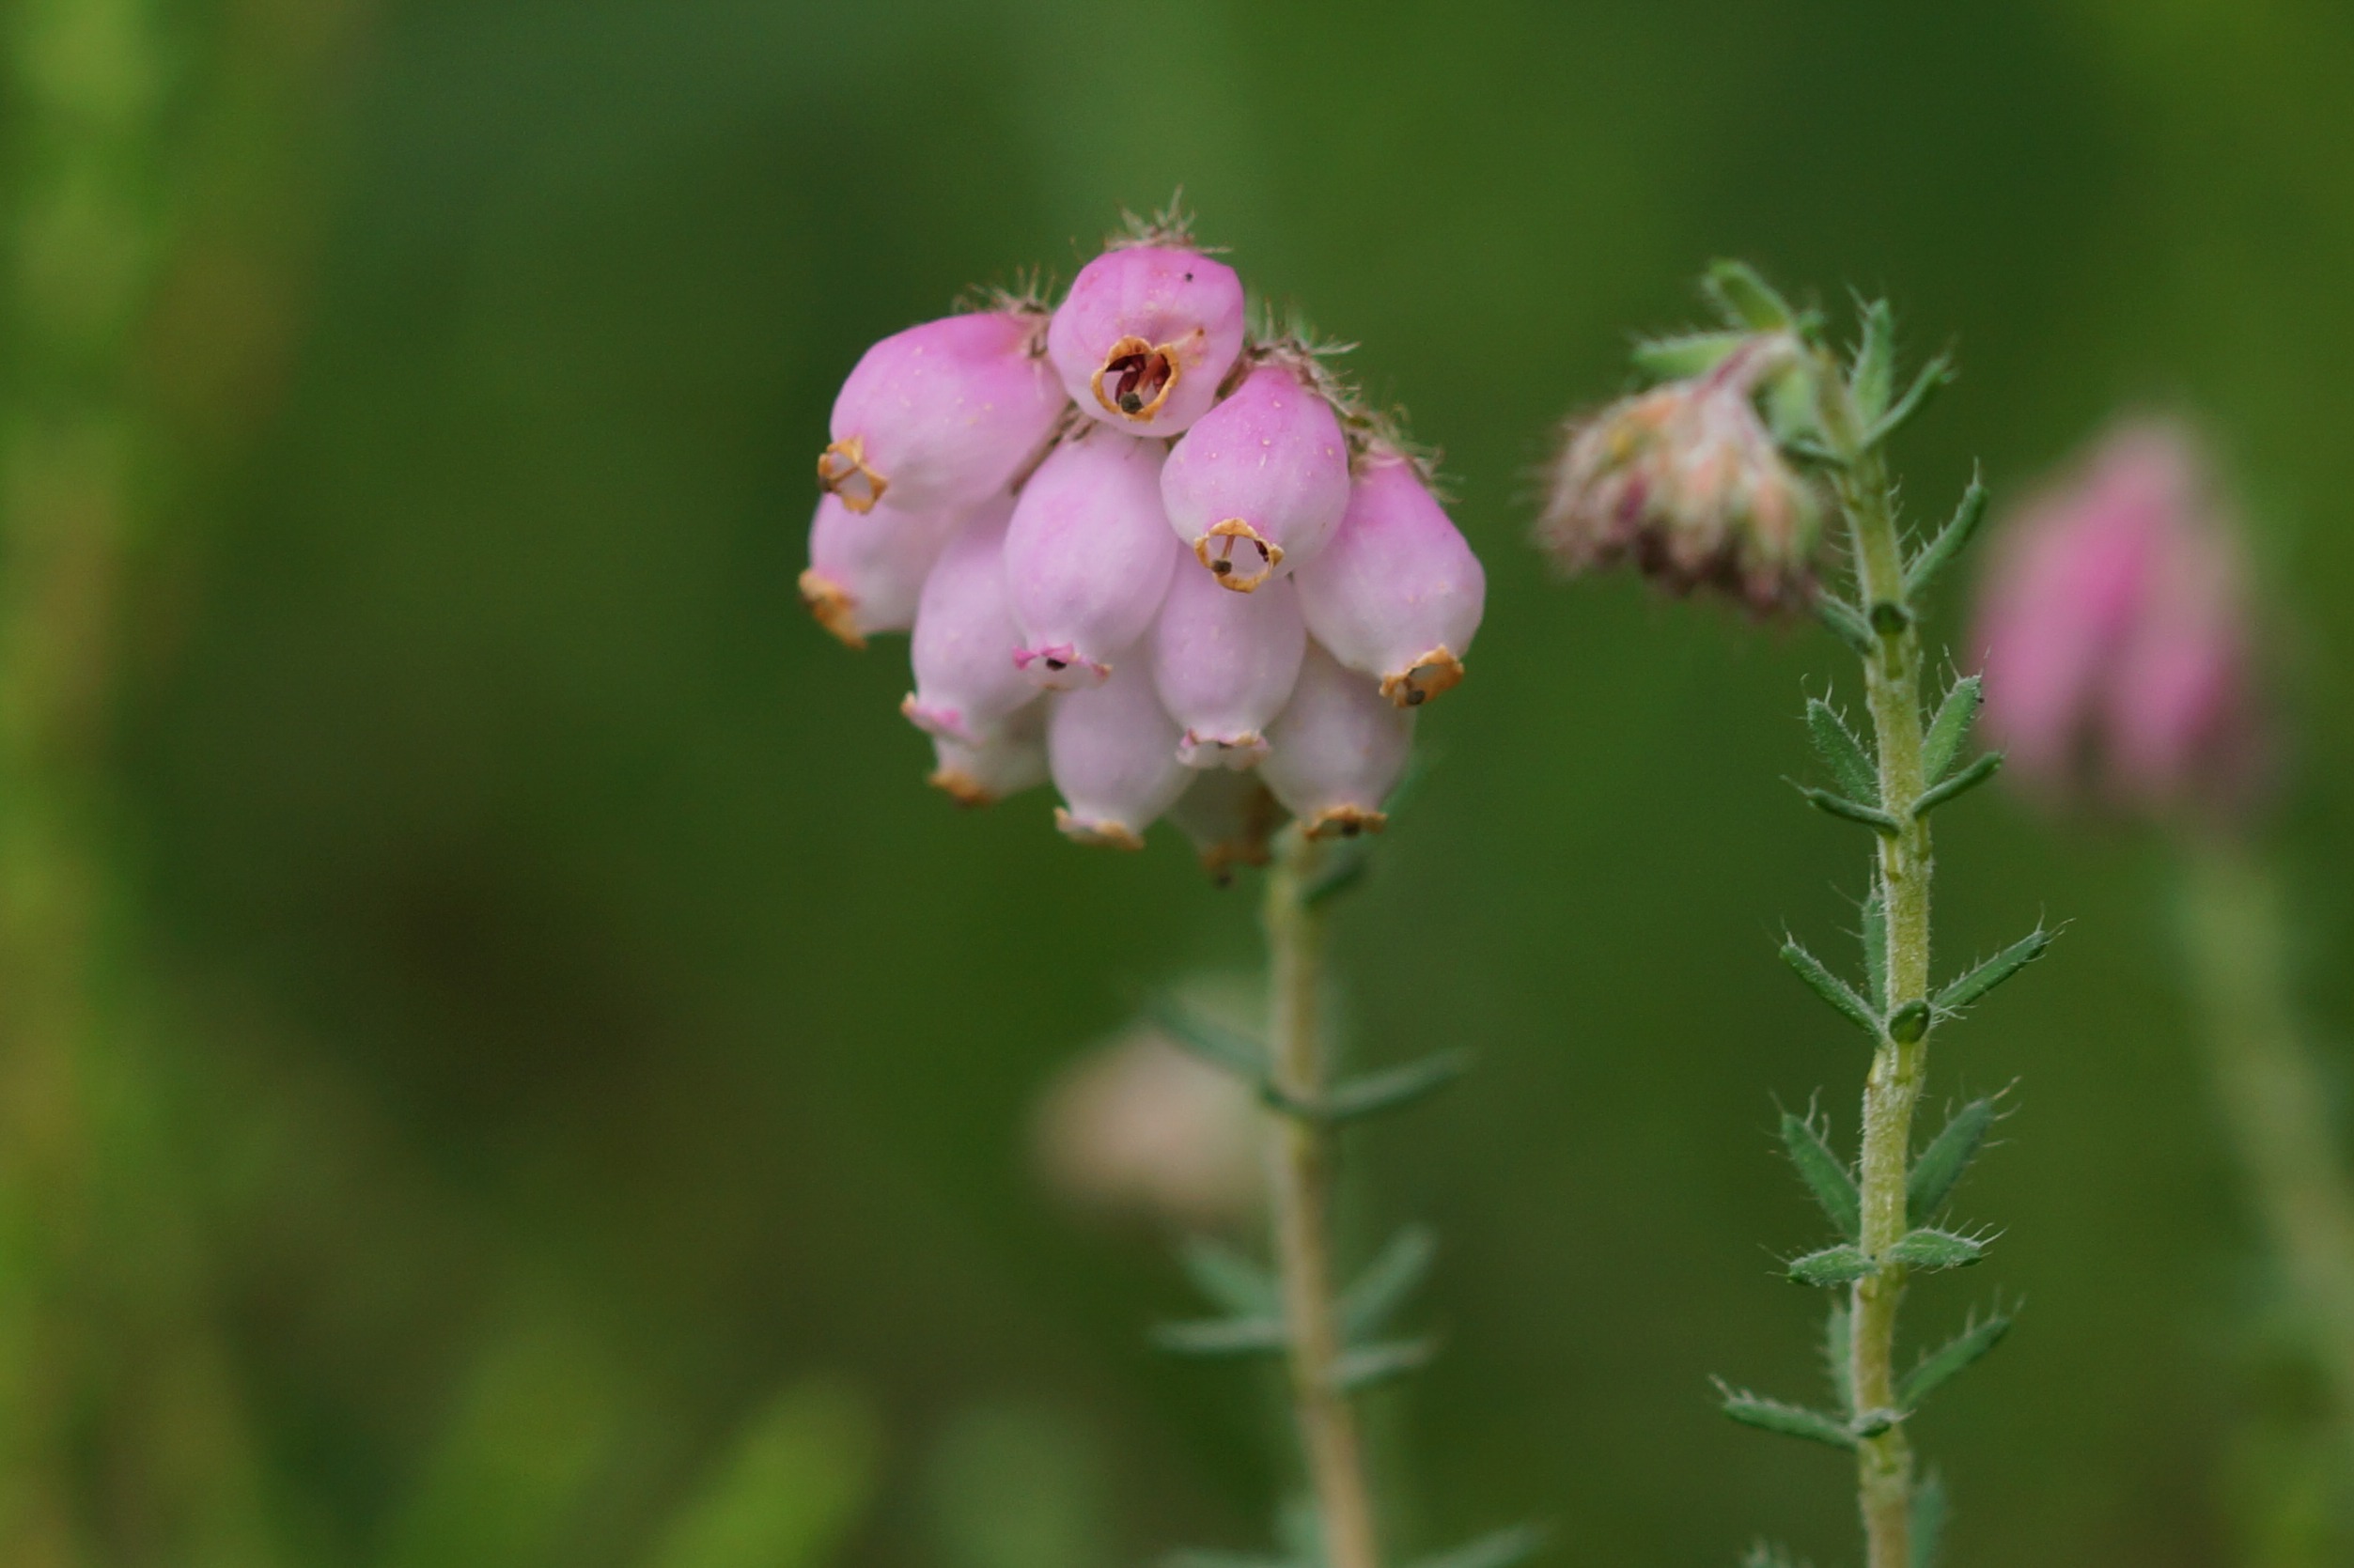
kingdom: Plantae
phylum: Tracheophyta
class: Magnoliopsida
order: Ericales
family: Ericaceae
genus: Erica
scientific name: Erica tetralix
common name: Klokkelyng
